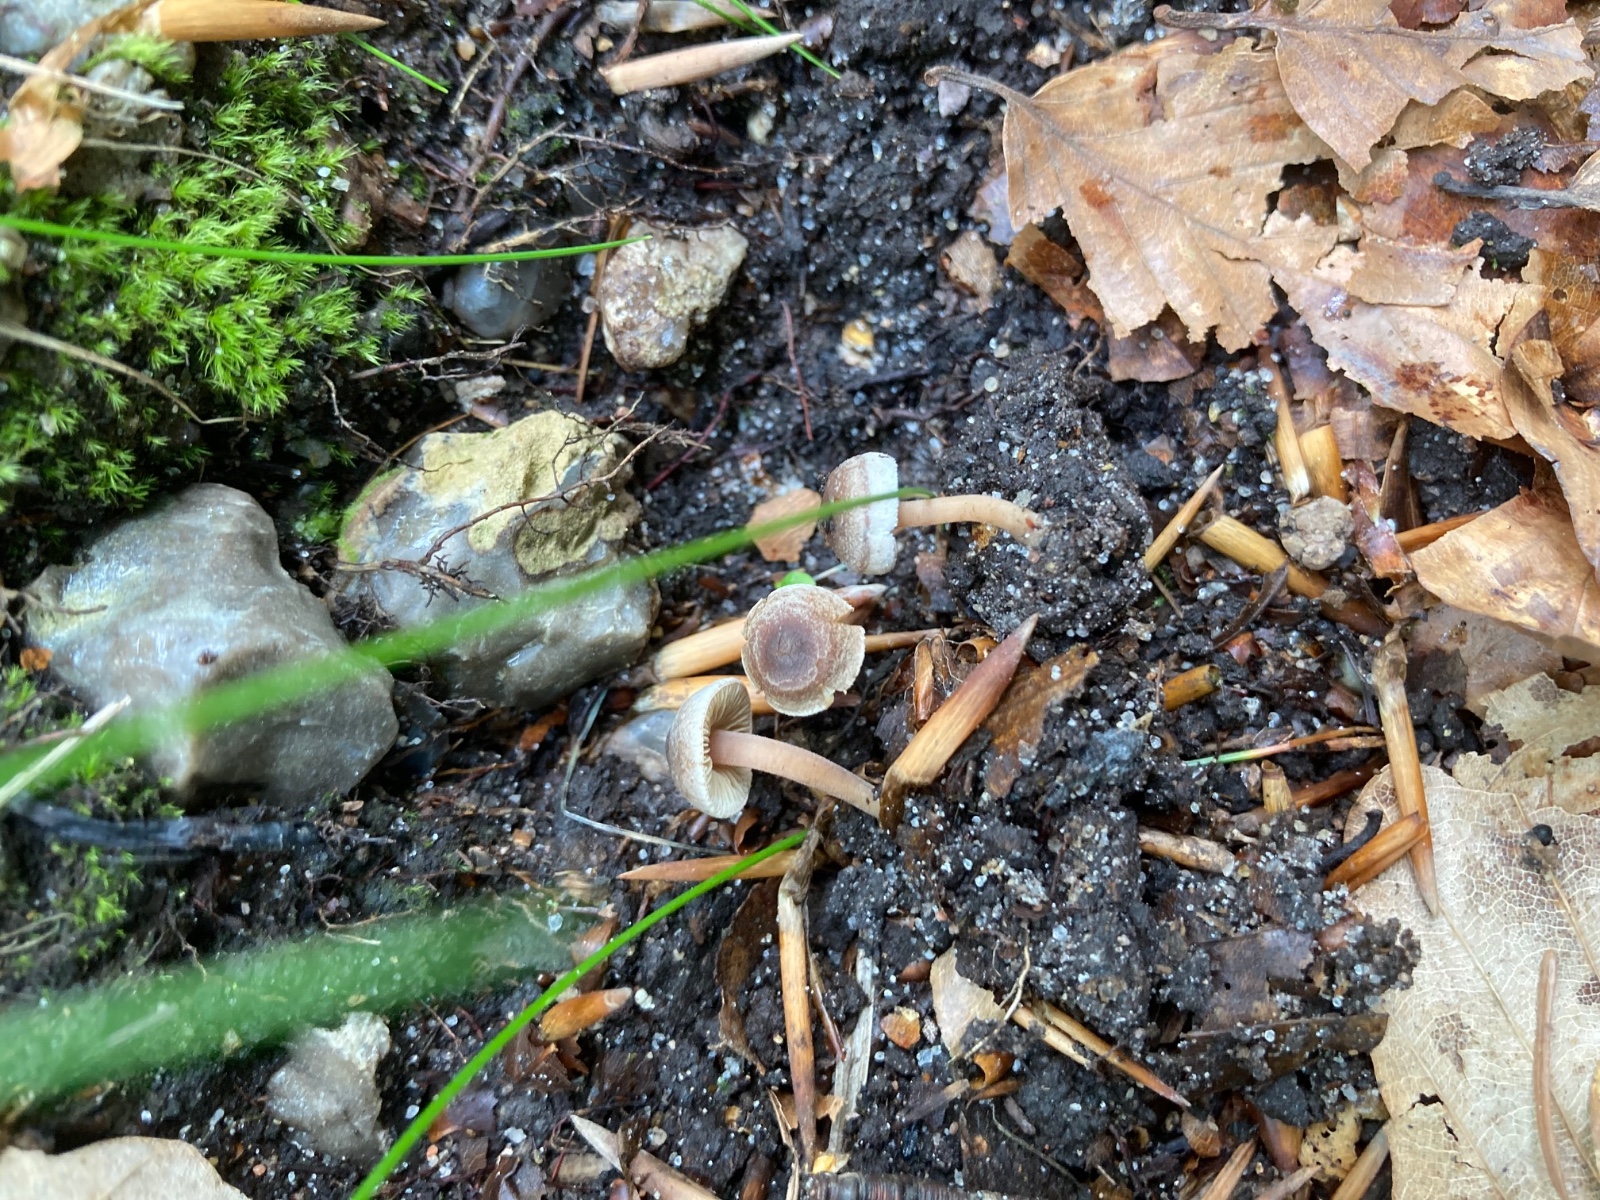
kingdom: Fungi
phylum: Basidiomycota
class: Agaricomycetes
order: Agaricales
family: Inocybaceae
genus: Inocybe
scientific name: Inocybe petiginosa
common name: liden trævlhat
